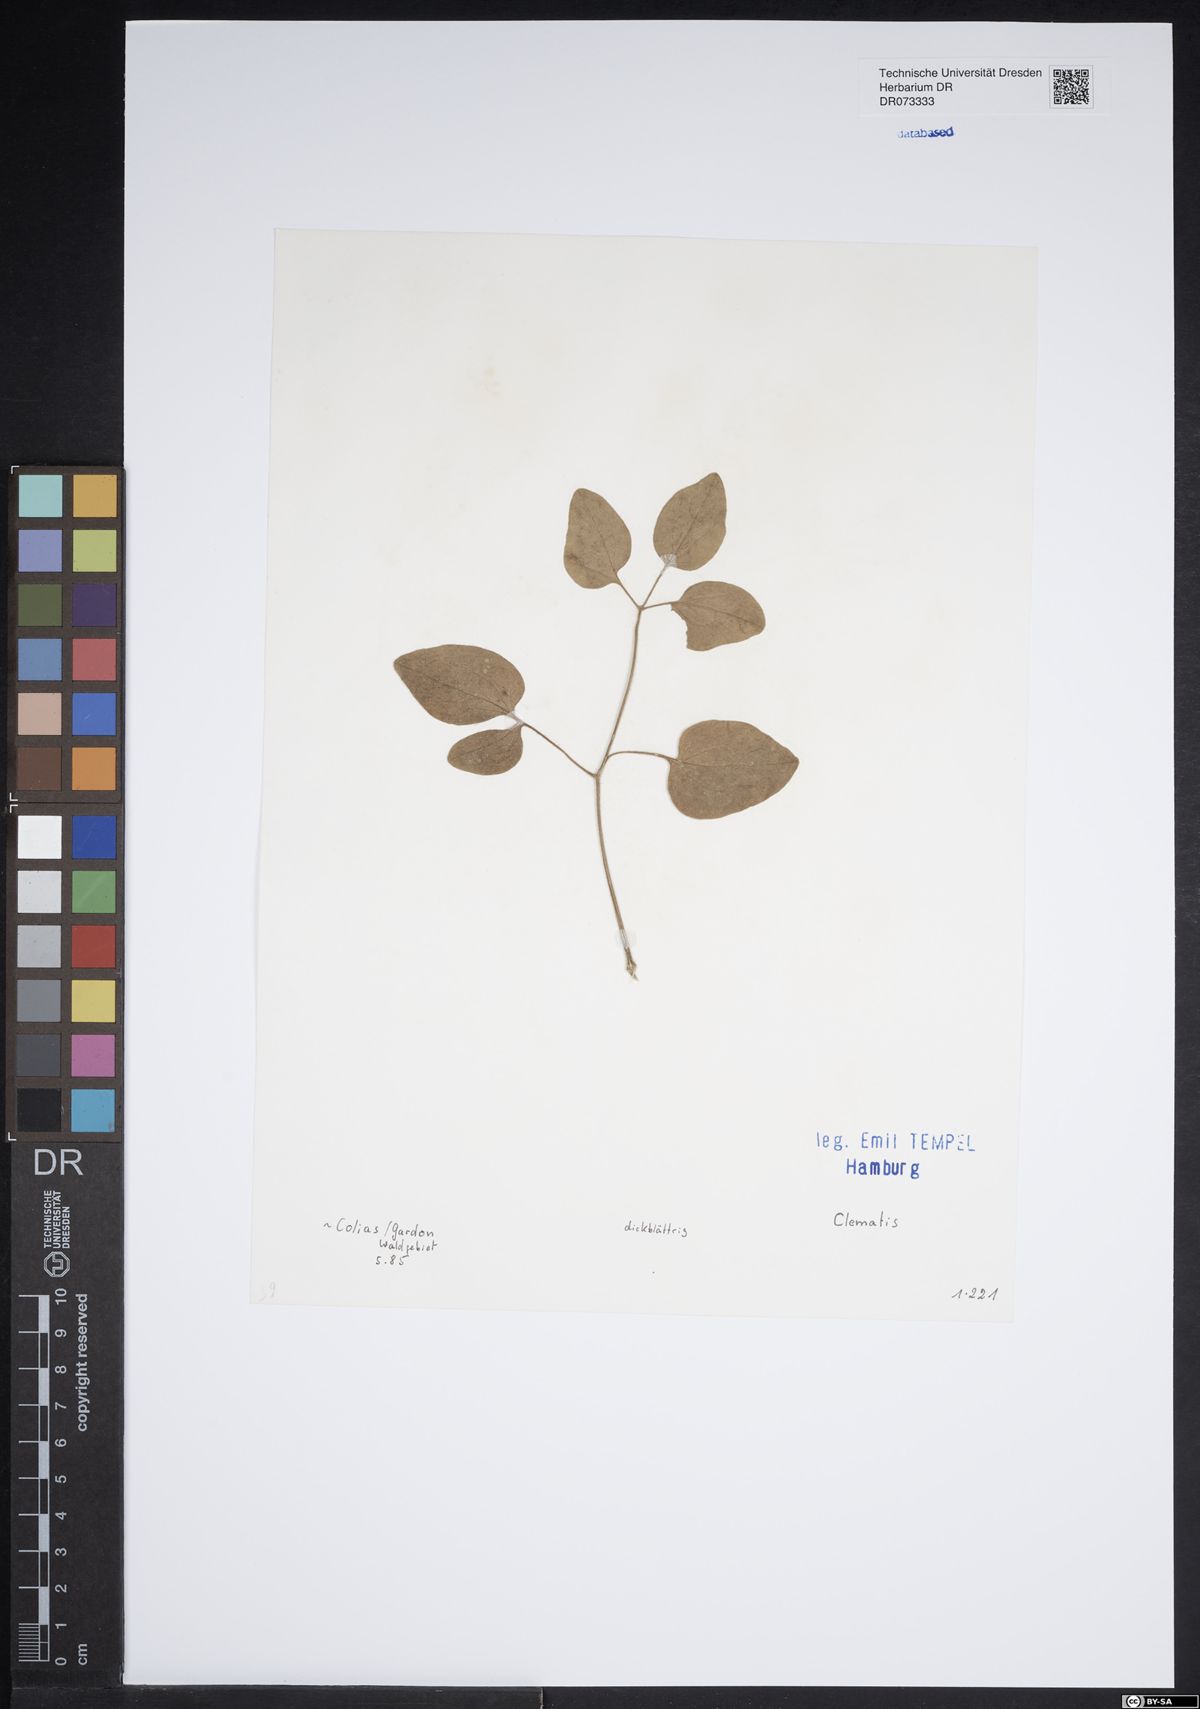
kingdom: Plantae
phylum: Tracheophyta
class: Magnoliopsida
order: Ranunculales
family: Ranunculaceae
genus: Clematis
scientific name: Clematis
